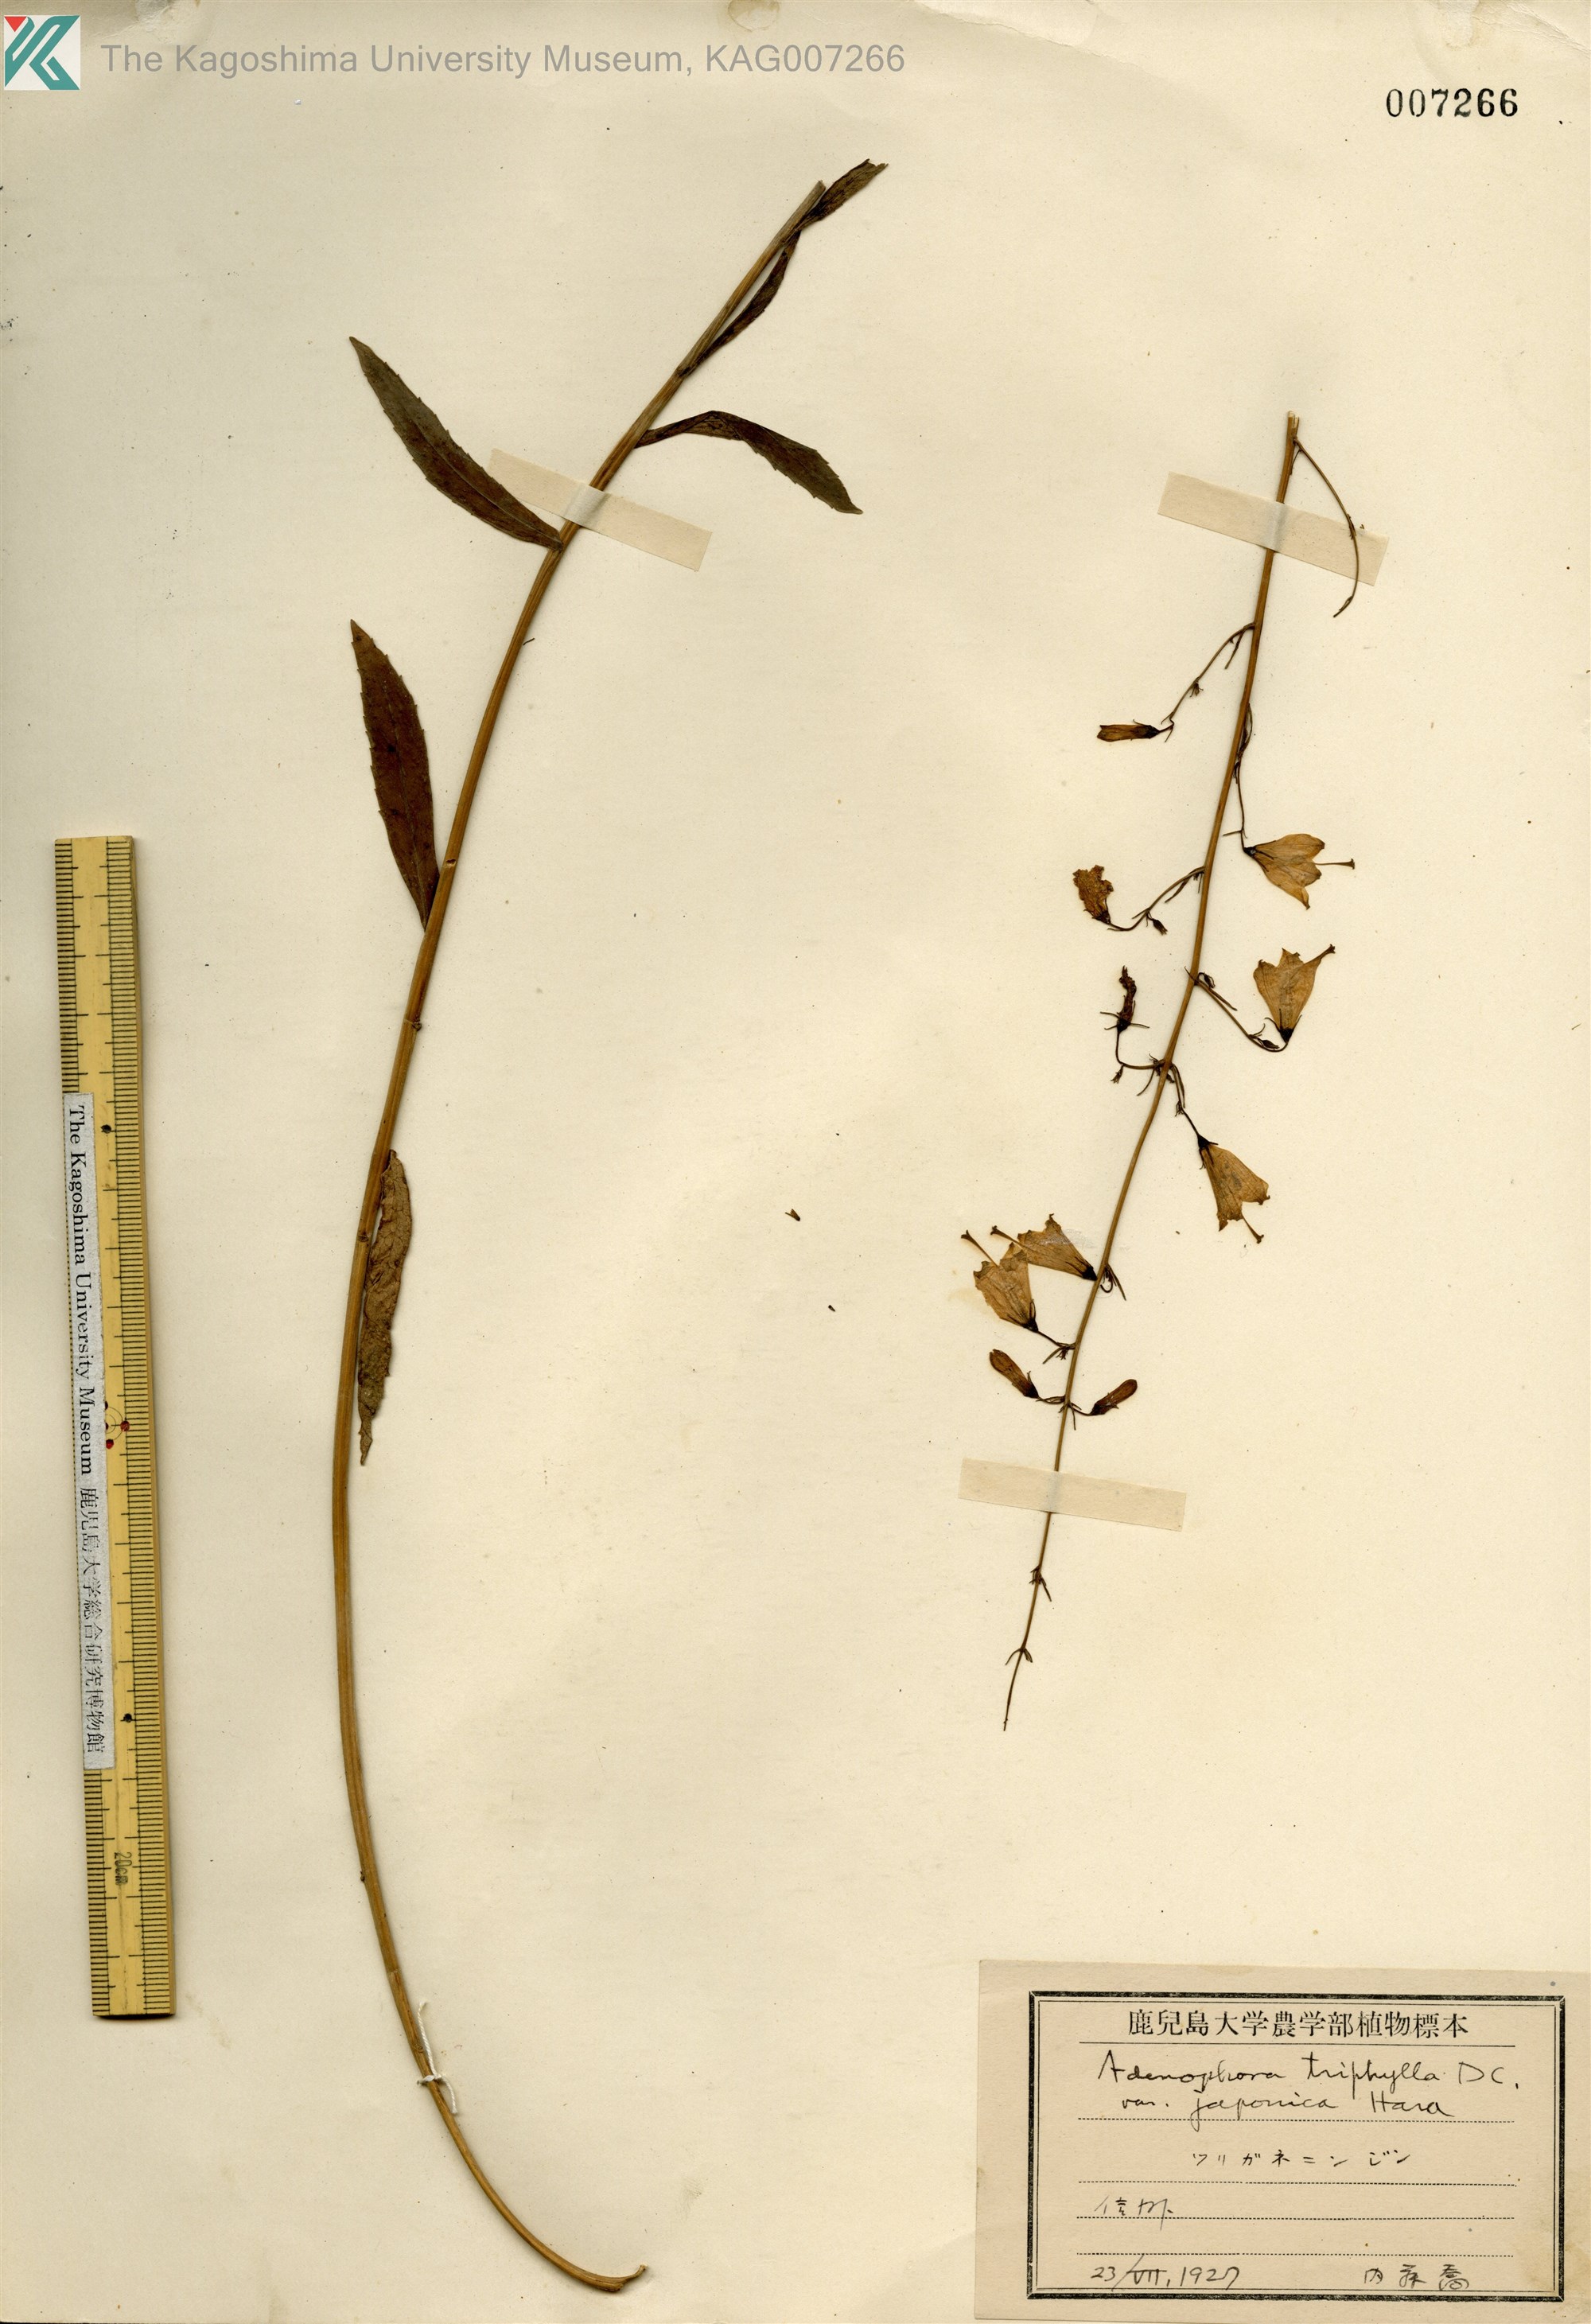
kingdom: Plantae
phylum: Tracheophyta
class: Magnoliopsida
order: Asterales
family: Campanulaceae
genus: Adenophora
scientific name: Adenophora triphylla
